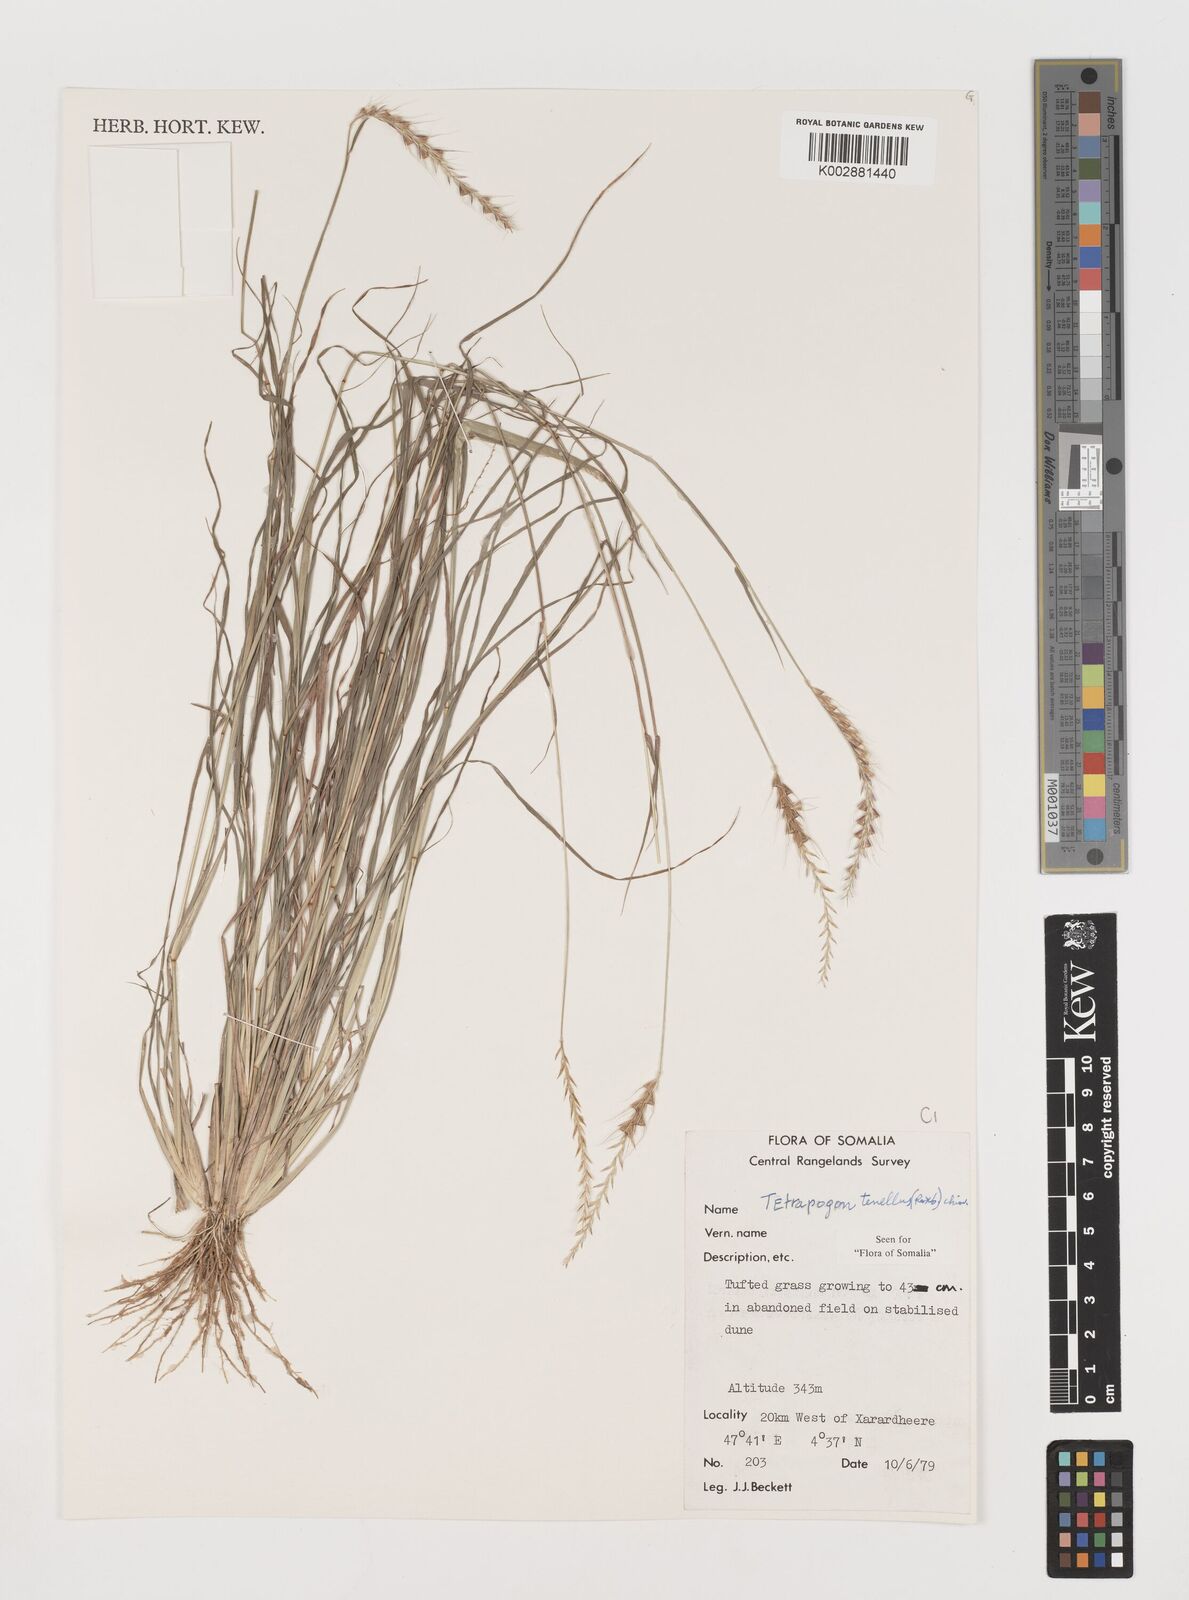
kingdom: Plantae
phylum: Tracheophyta
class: Liliopsida
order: Poales
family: Poaceae
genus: Tetrapogon
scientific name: Tetrapogon tenellus
